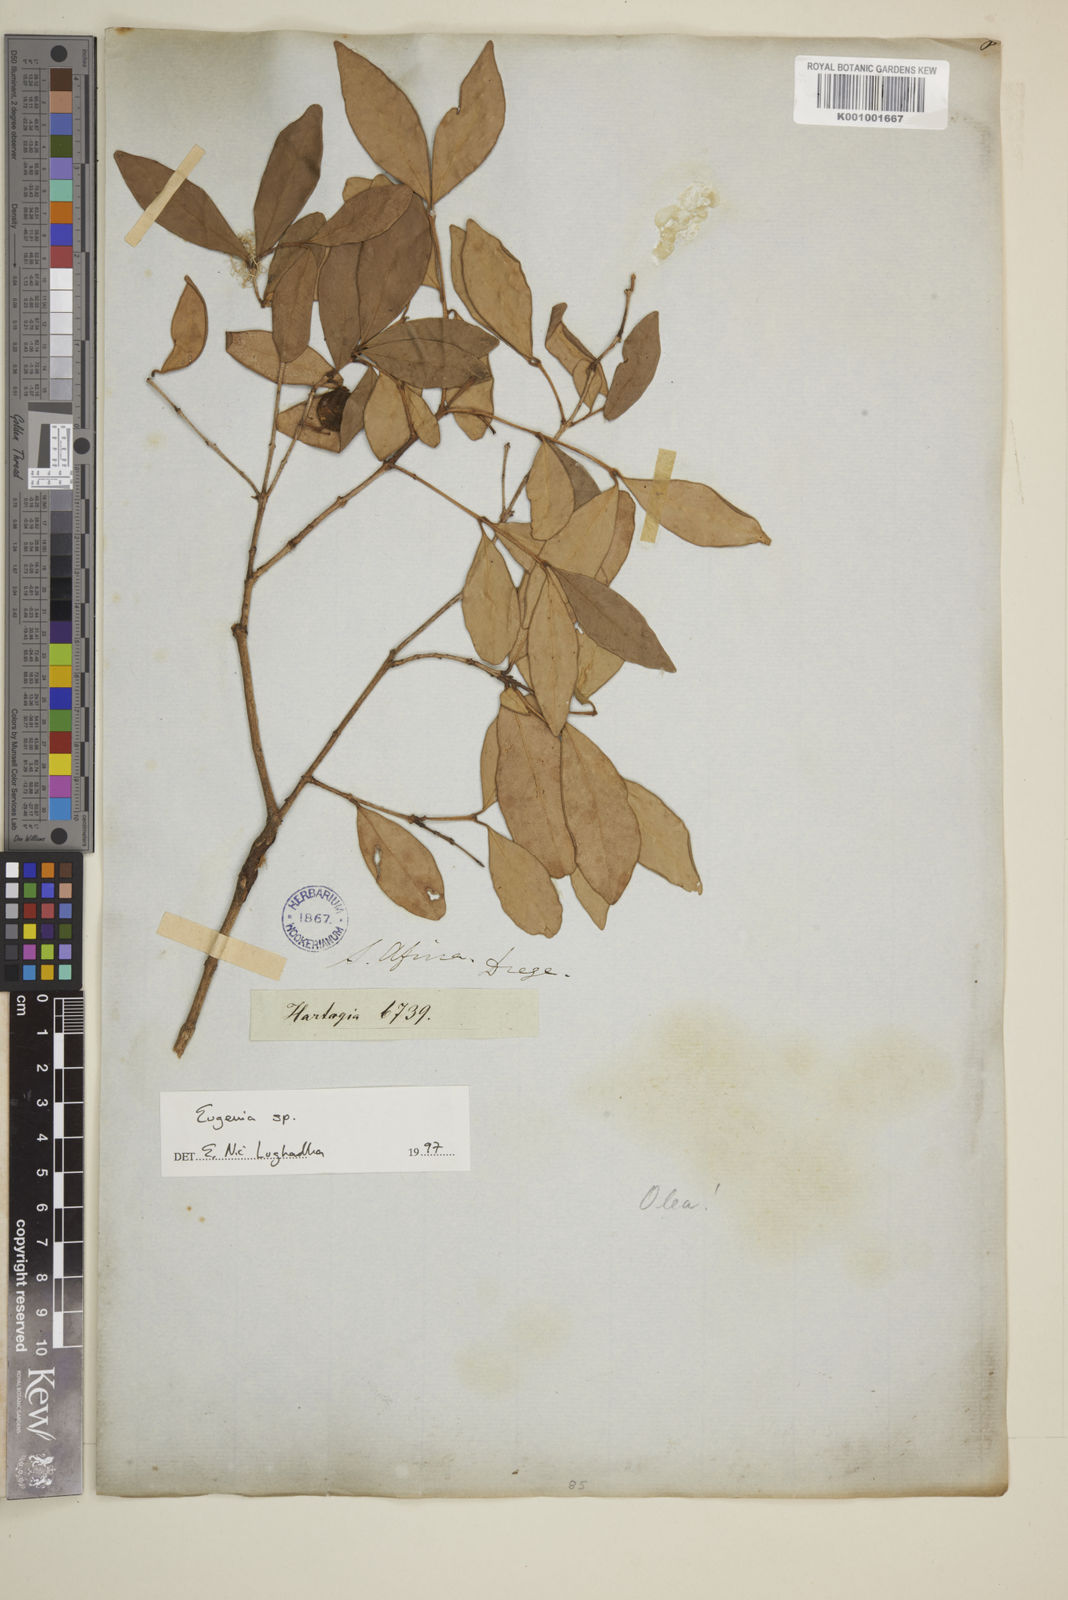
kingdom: Plantae
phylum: Tracheophyta
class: Magnoliopsida
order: Myrtales
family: Myrtaceae
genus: Eugenia
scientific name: Eugenia
